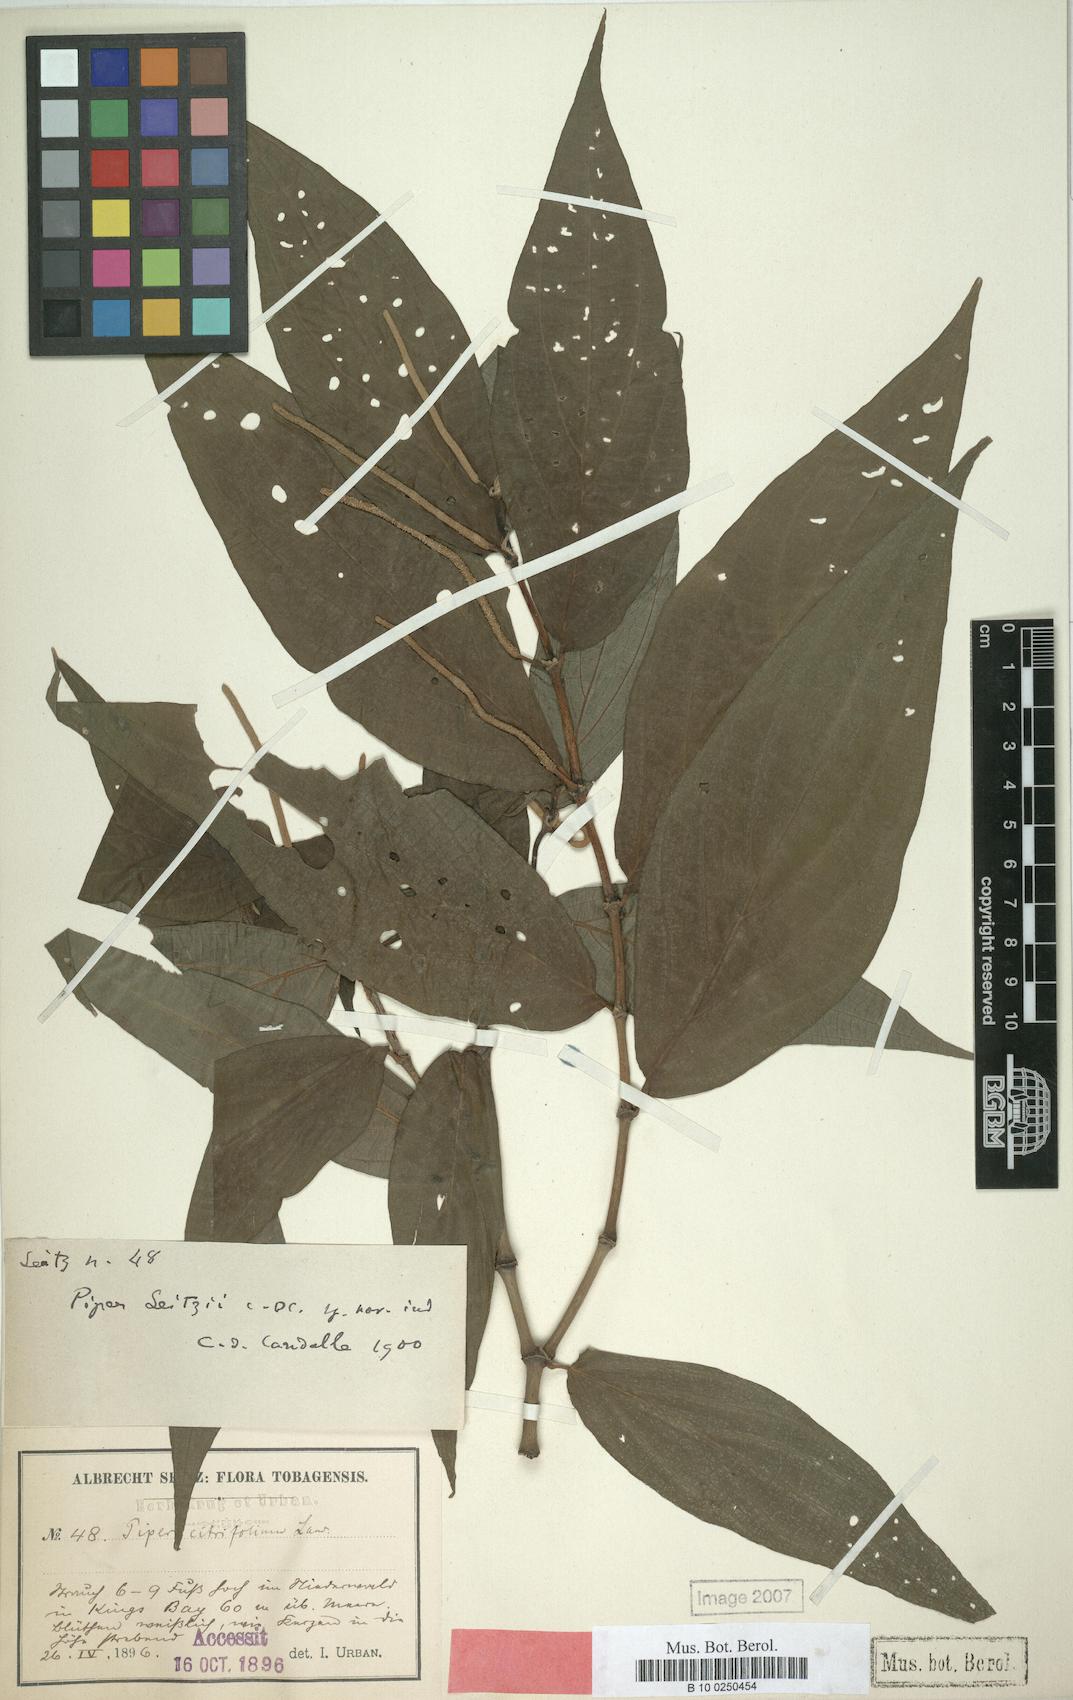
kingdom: Plantae
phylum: Tracheophyta
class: Magnoliopsida
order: Piperales
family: Piperaceae
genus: Piper
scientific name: Piper dilatatum
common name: Higuillo
